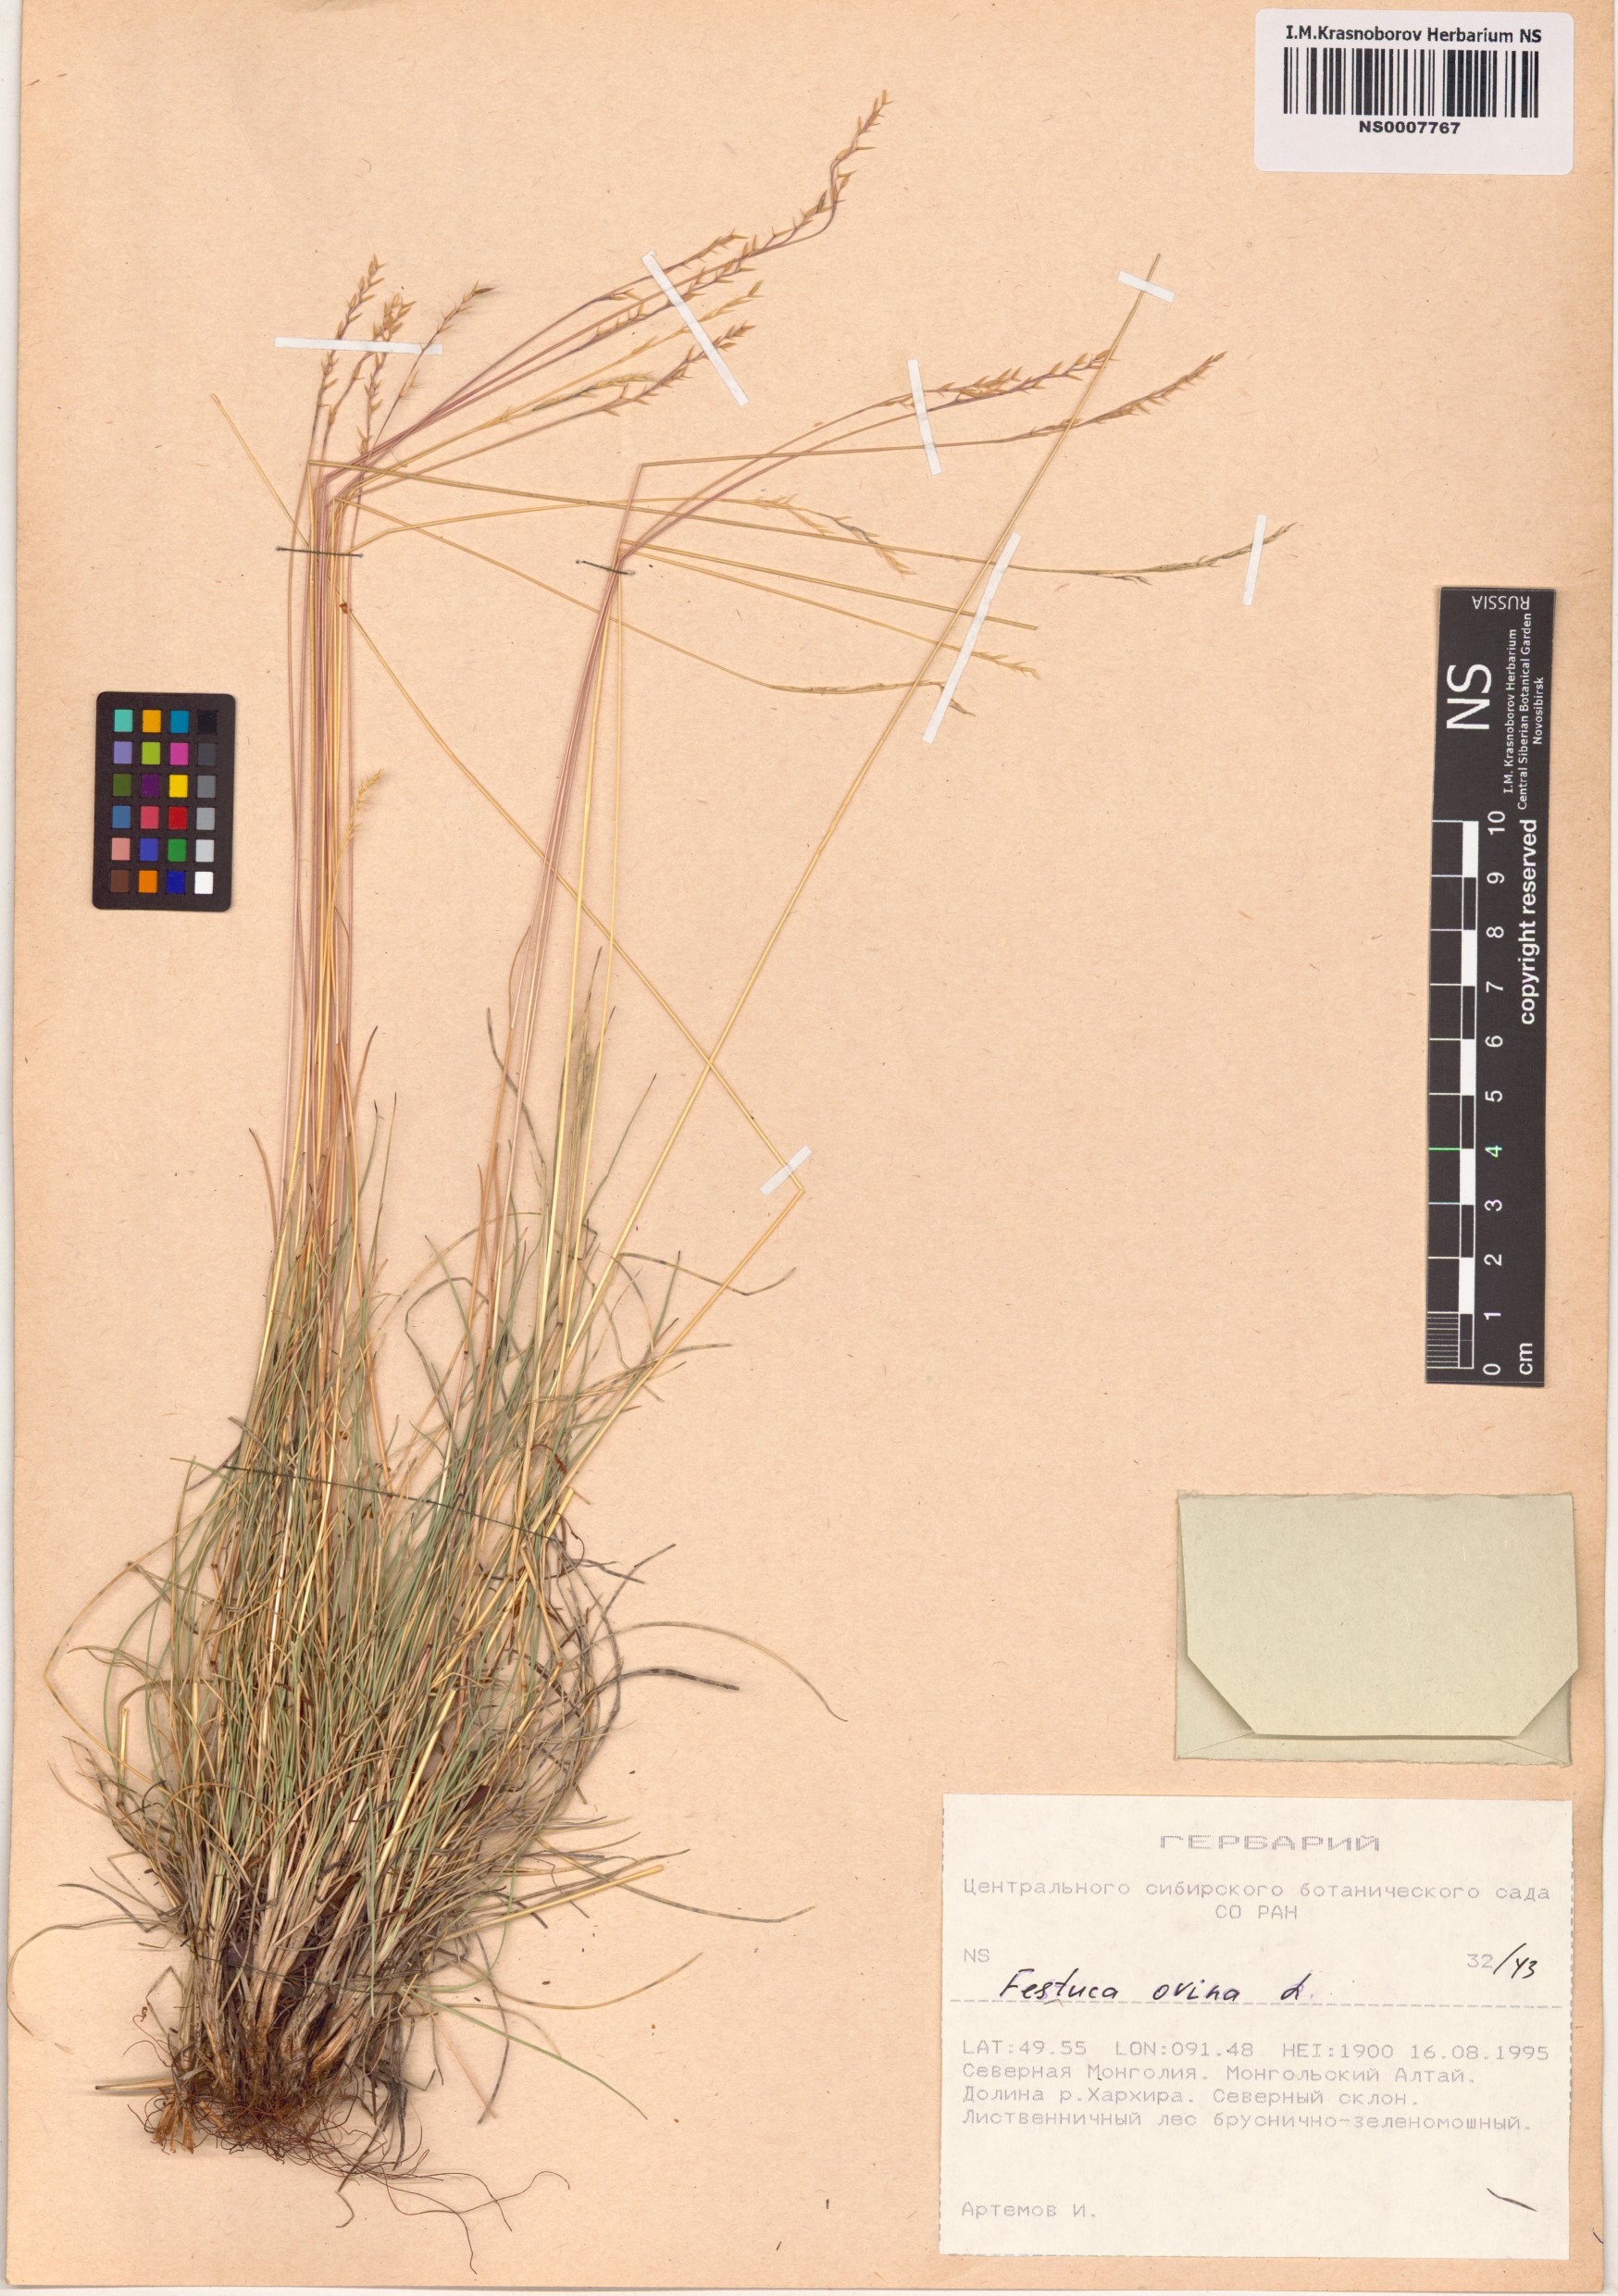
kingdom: Plantae
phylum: Tracheophyta
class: Liliopsida
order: Poales
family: Poaceae
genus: Festuca
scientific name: Festuca ovina
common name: Sheep fescue
